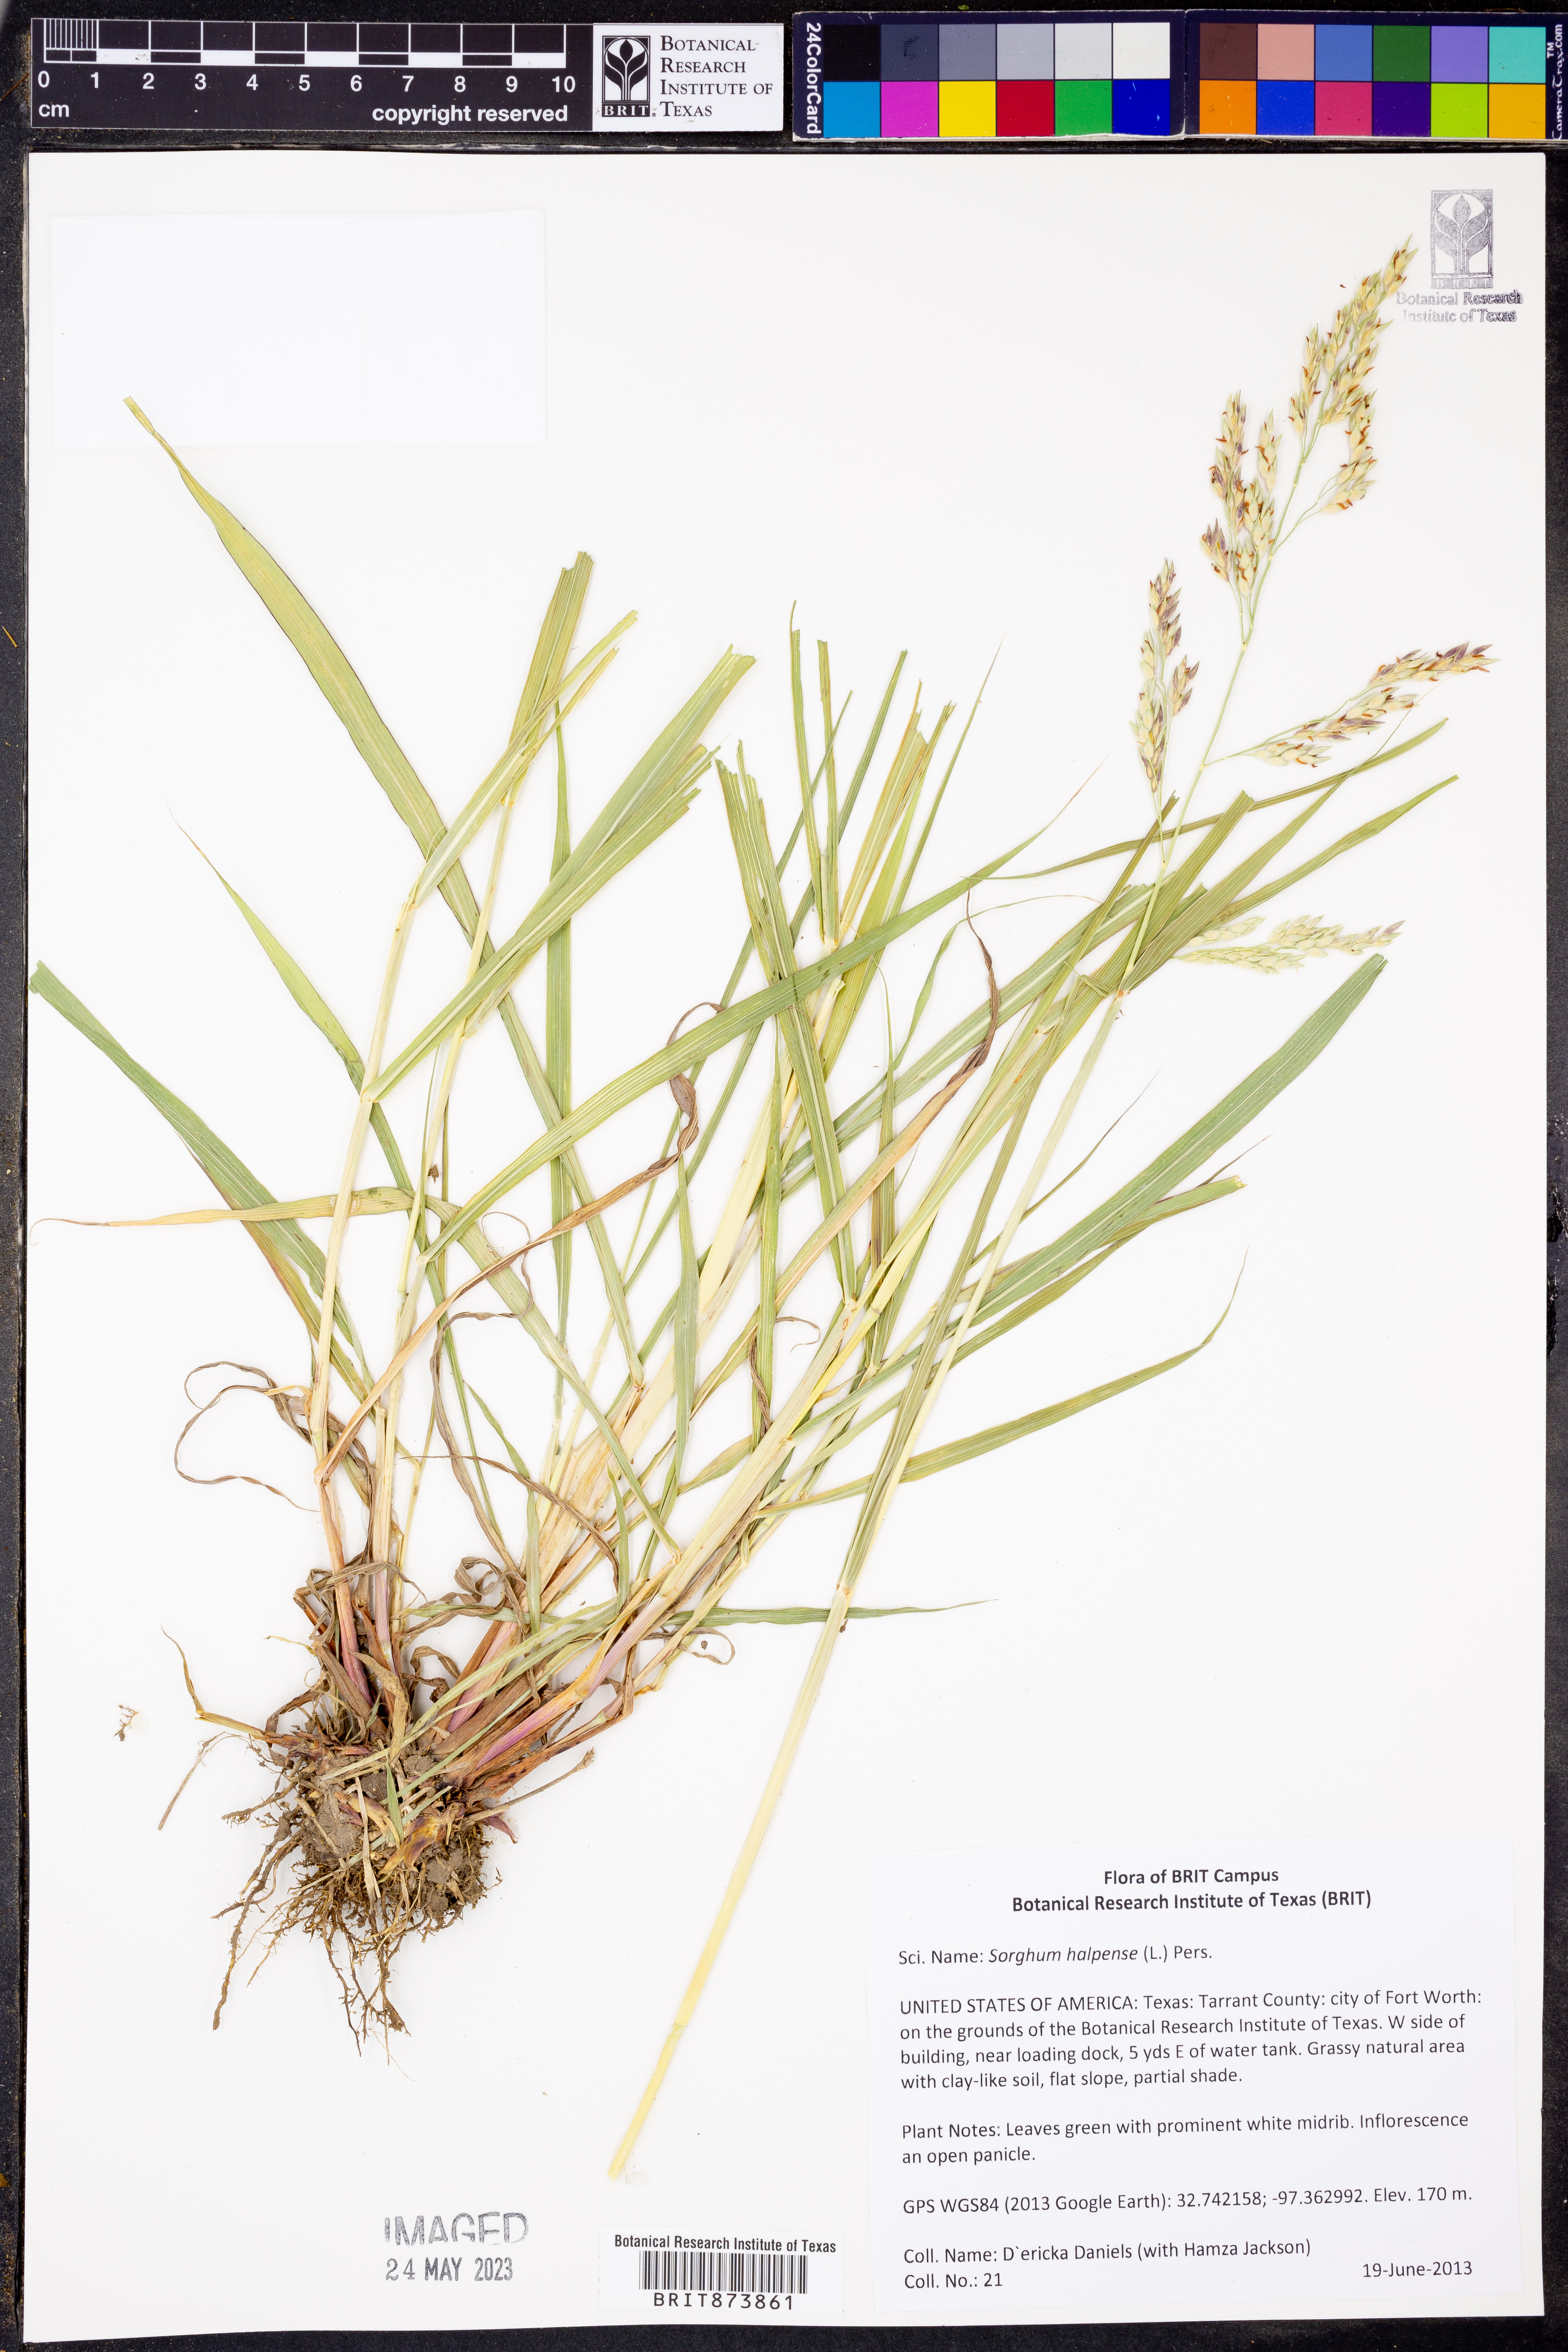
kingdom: Plantae
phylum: Tracheophyta
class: Liliopsida
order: Poales
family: Poaceae
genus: Sorghum
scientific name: Sorghum halepense
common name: Johnson-grass
